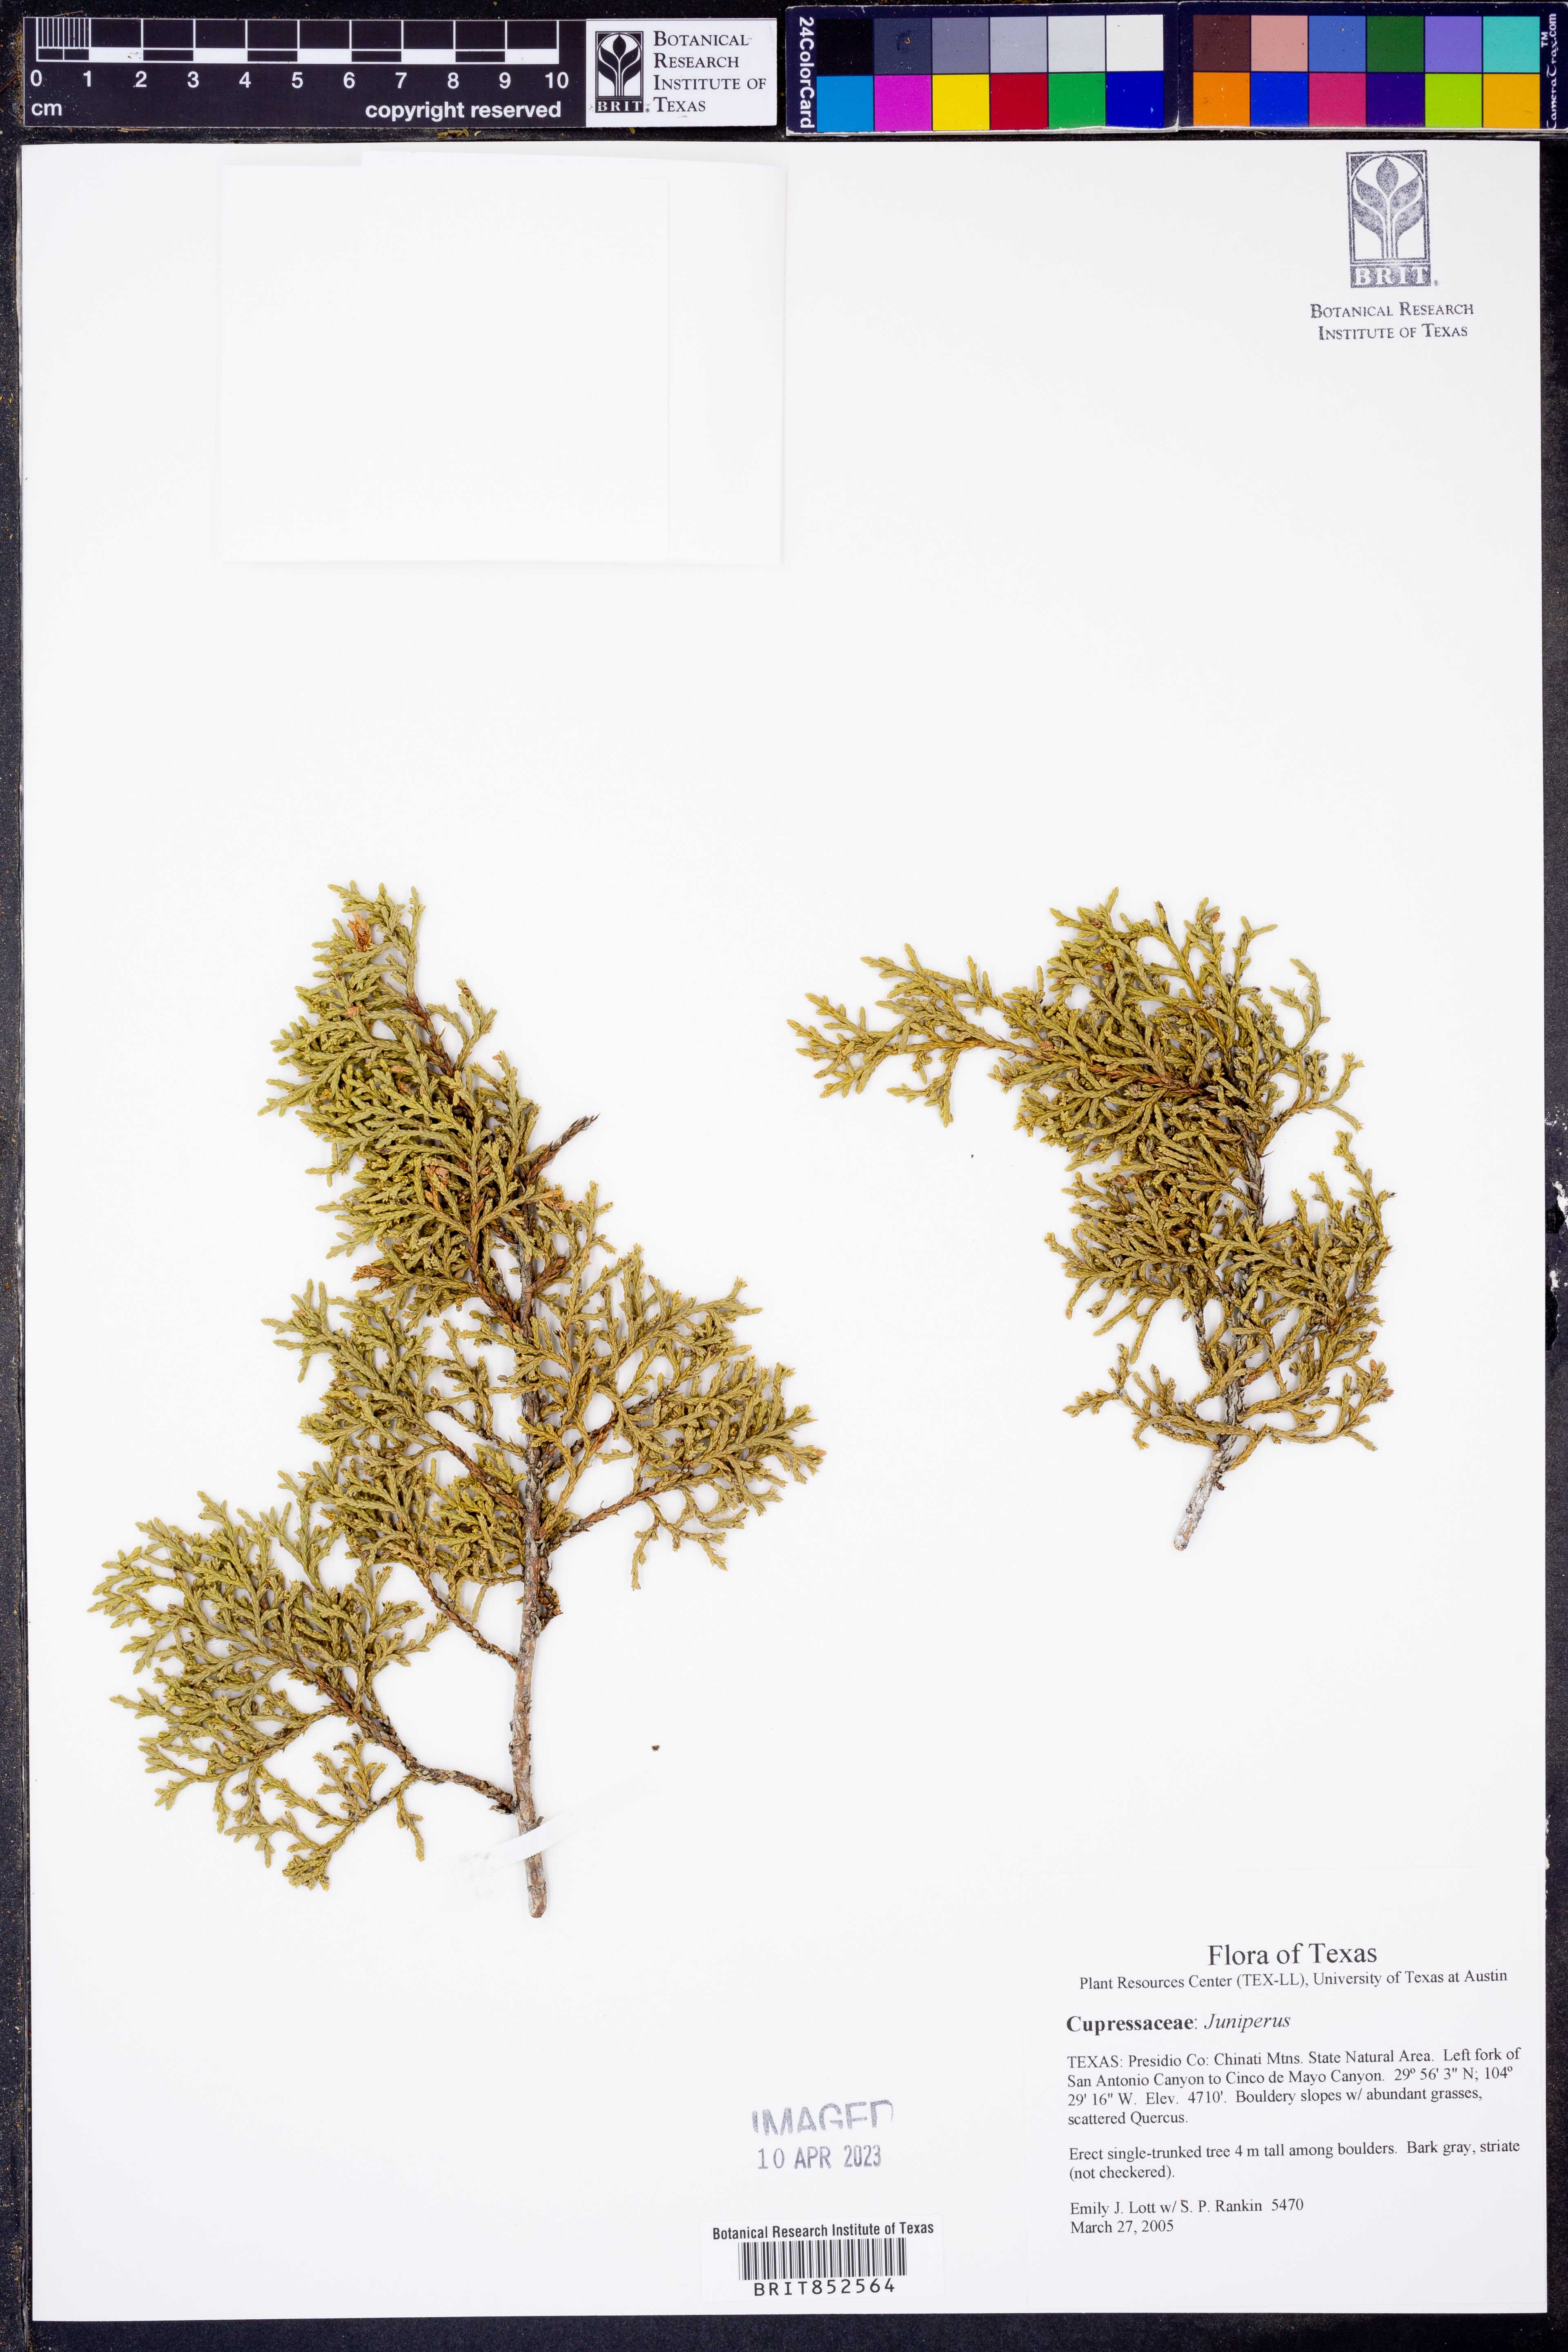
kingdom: Plantae
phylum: Tracheophyta
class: Pinopsida
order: Pinales
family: Cupressaceae
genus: Juniperus
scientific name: Juniperus
